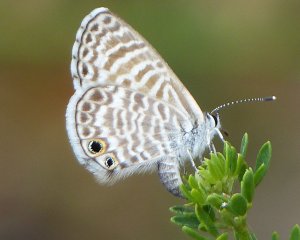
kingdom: Animalia
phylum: Arthropoda
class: Insecta
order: Lepidoptera
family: Lycaenidae
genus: Leptotes
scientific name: Leptotes marina
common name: Marine Blue
